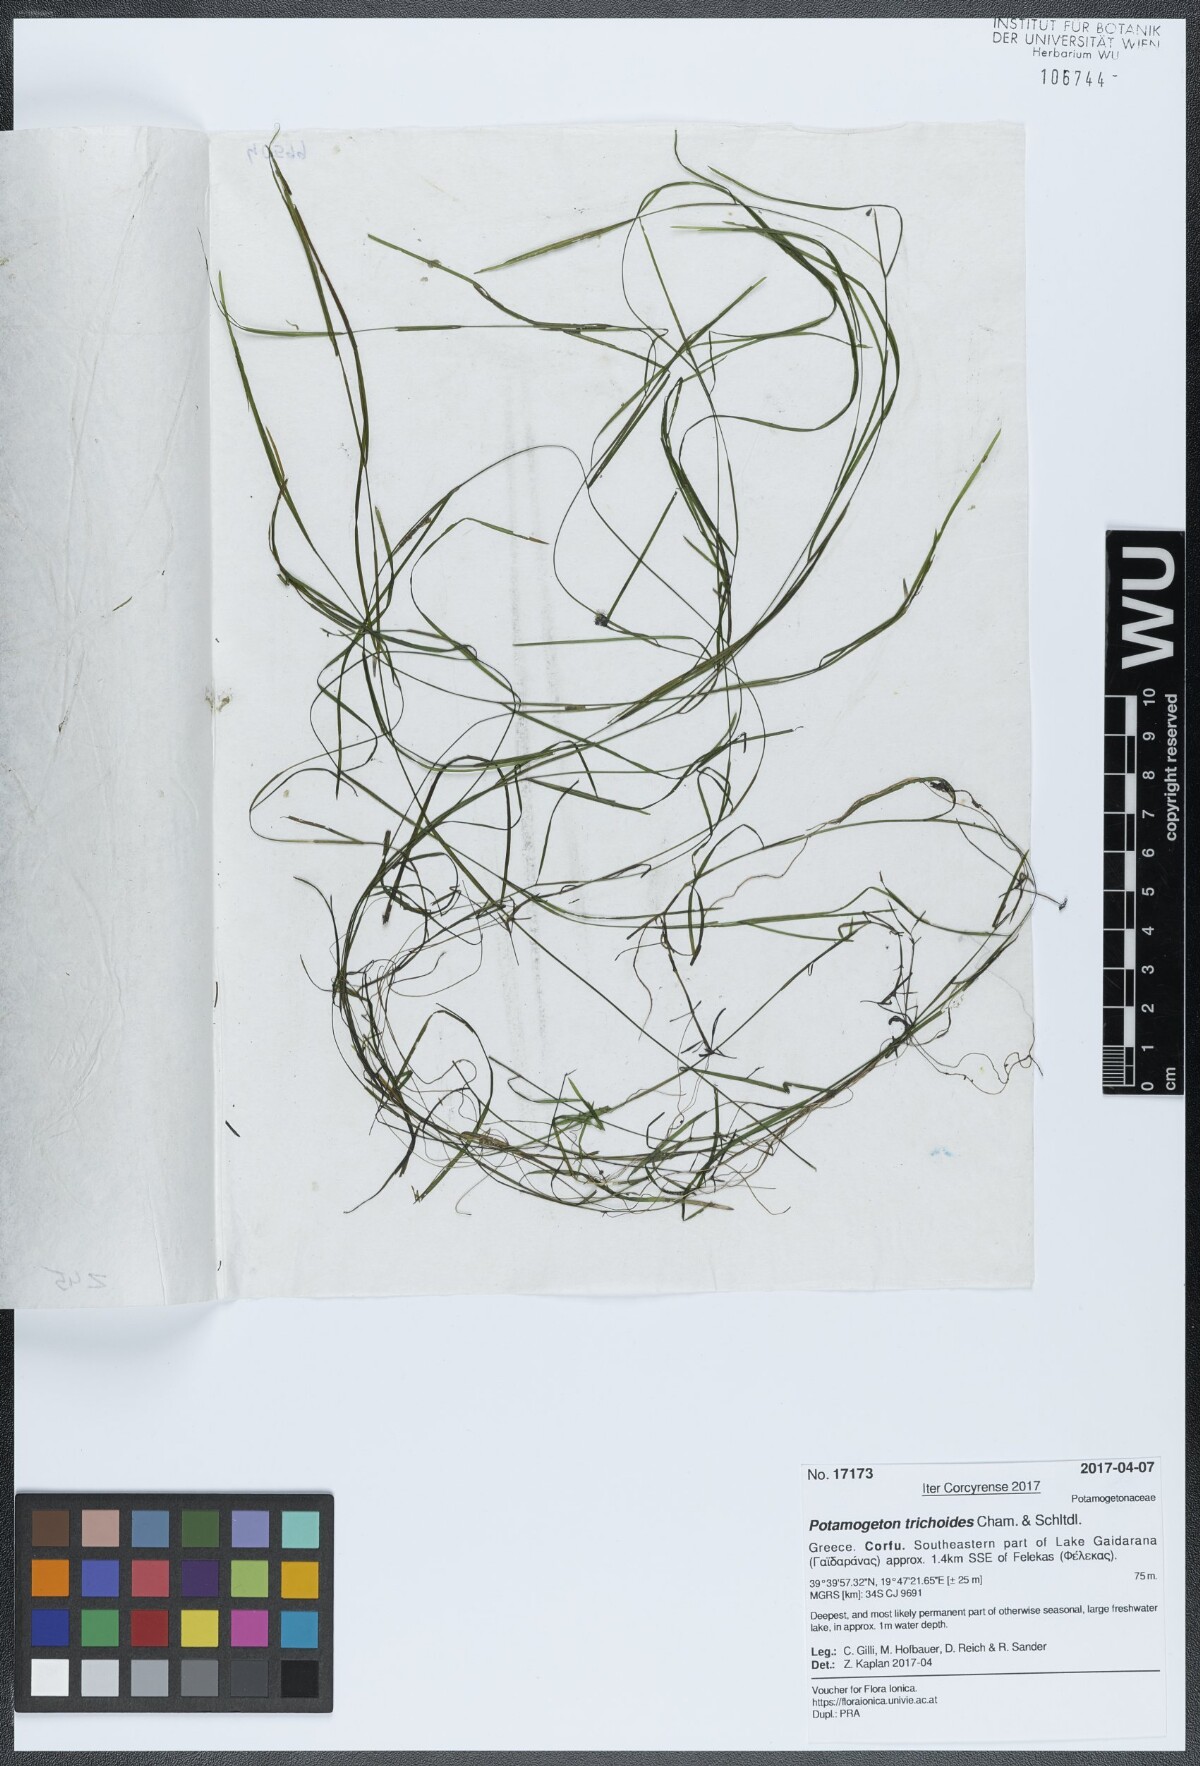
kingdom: Plantae
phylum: Tracheophyta
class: Liliopsida
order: Alismatales
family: Potamogetonaceae
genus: Potamogeton
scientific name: Potamogeton trichoides
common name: Hairlike pondweed
